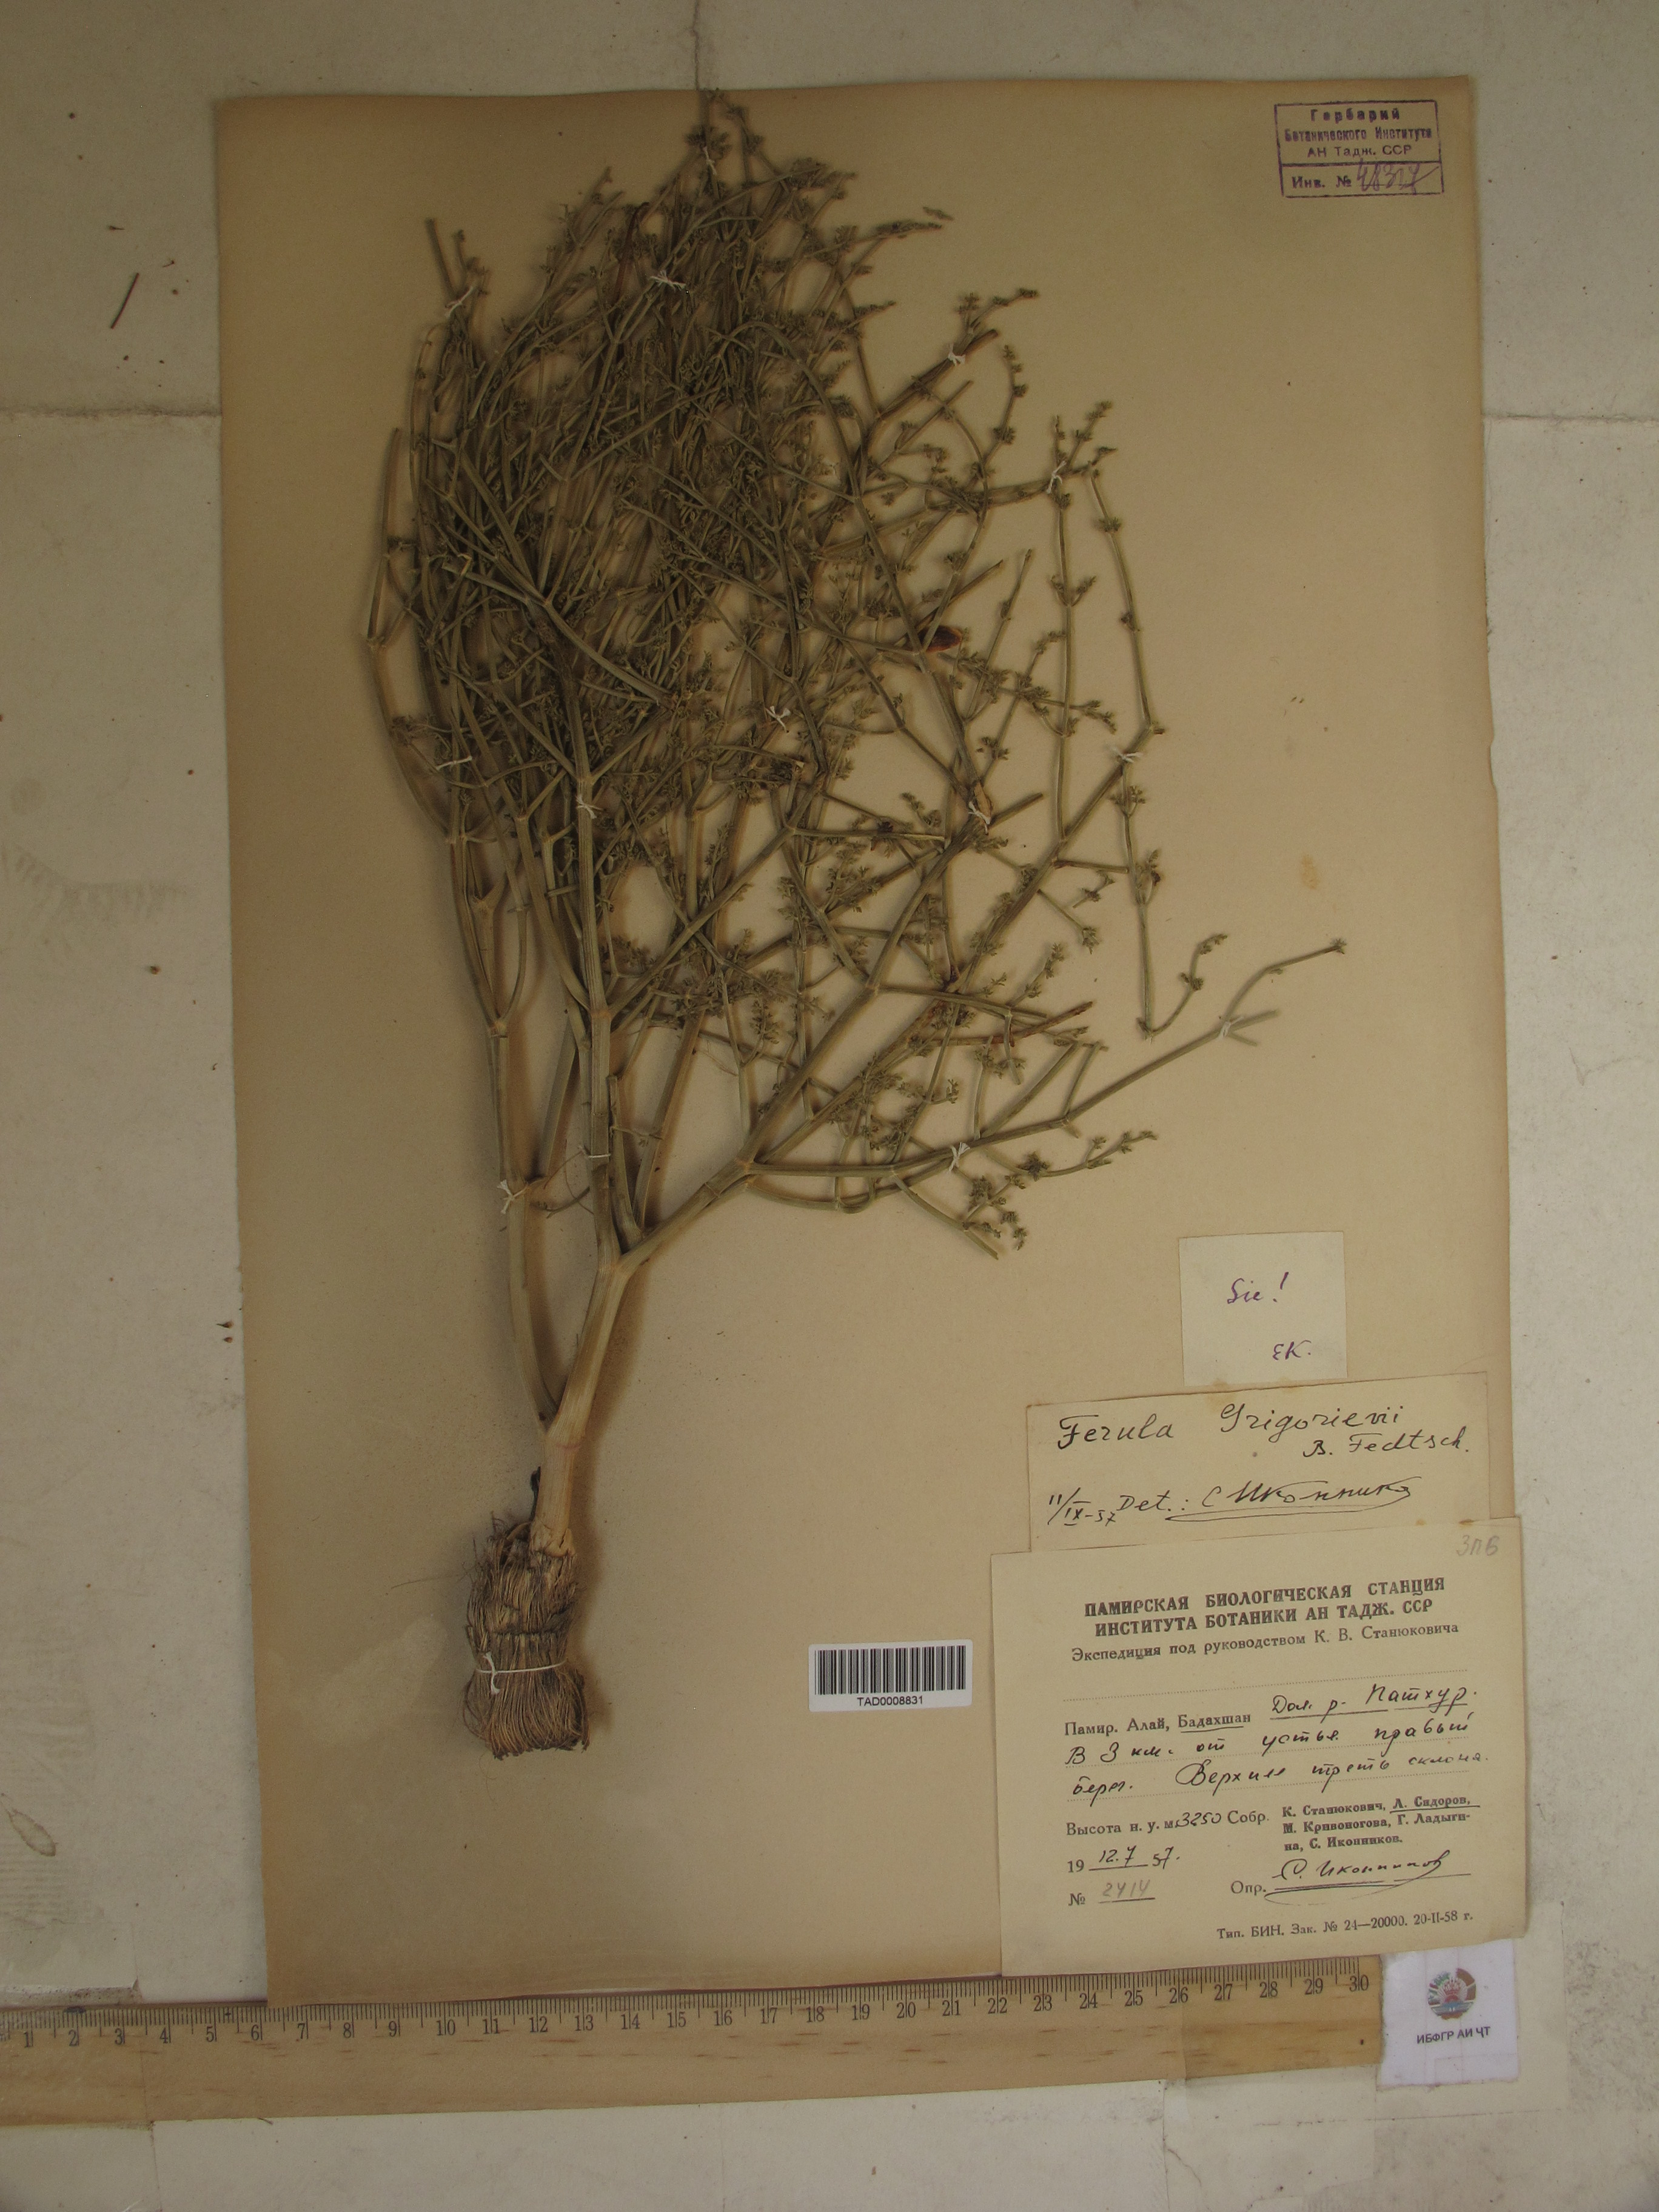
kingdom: Plantae
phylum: Tracheophyta
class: Magnoliopsida
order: Apiales
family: Apiaceae
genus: Ferula
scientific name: Ferula grigoriewii
